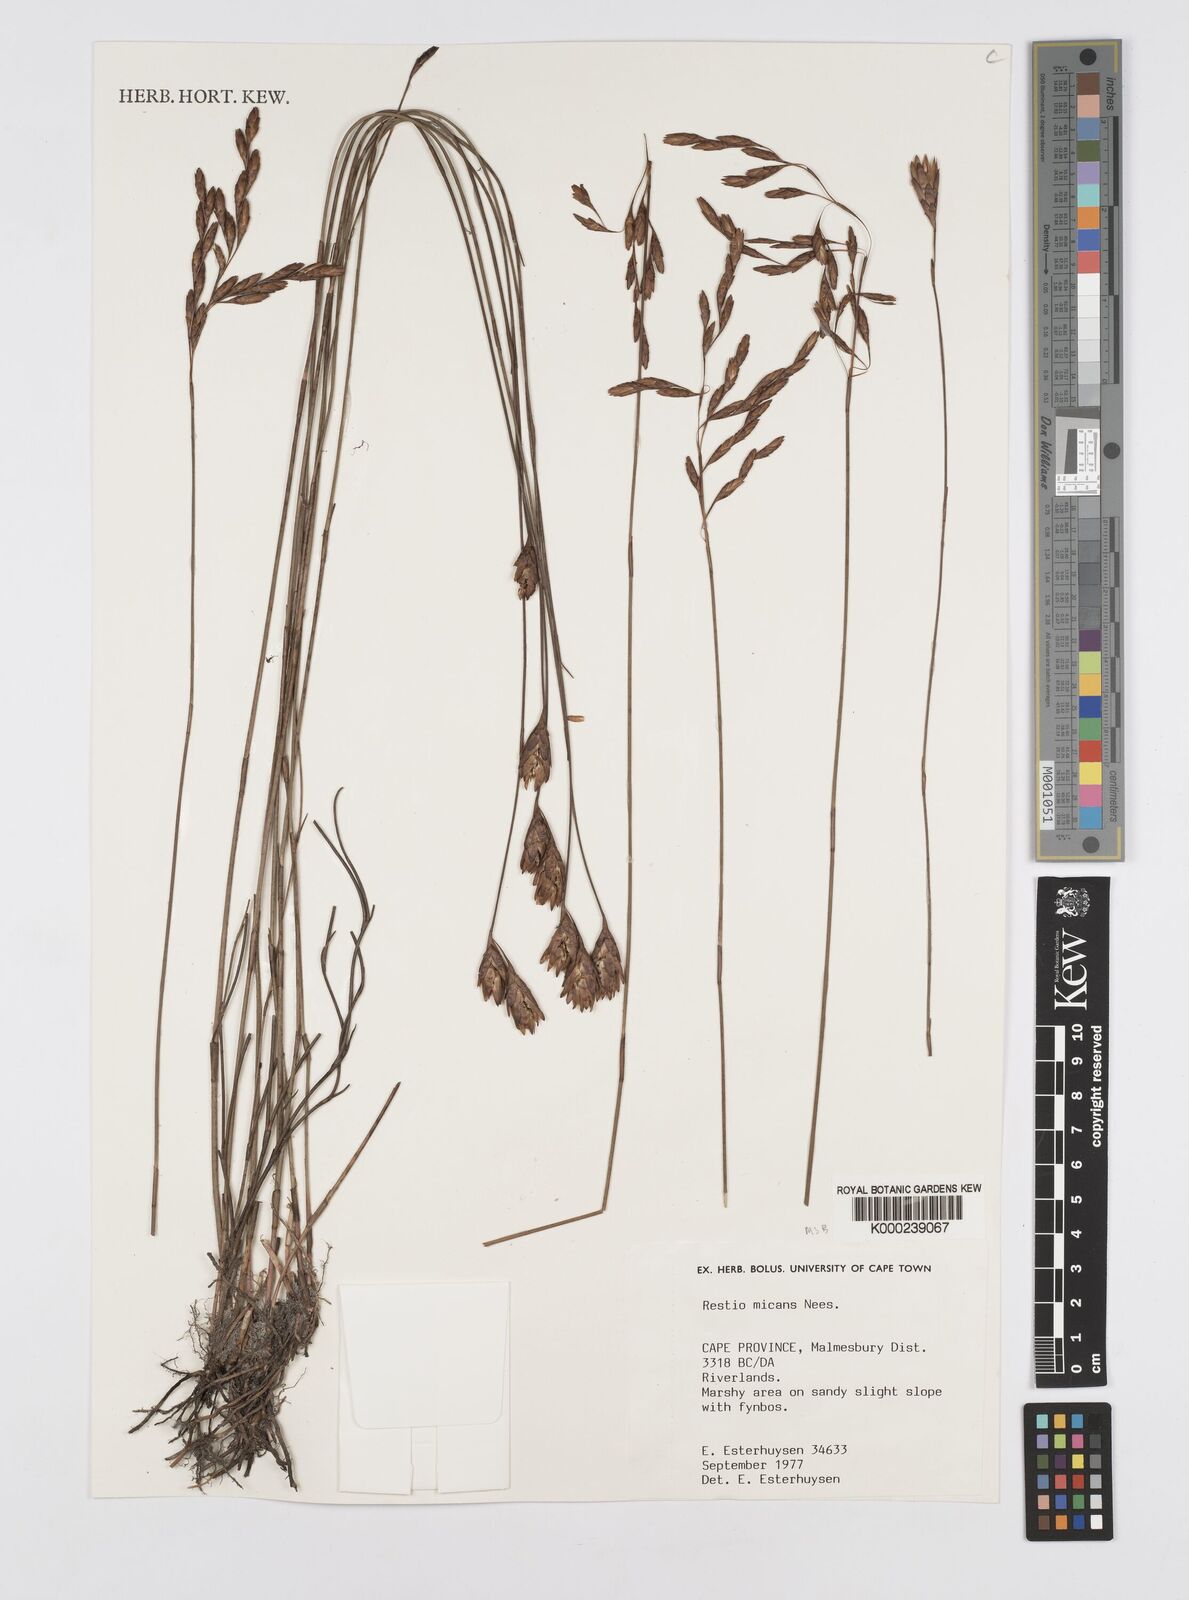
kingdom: Plantae
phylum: Tracheophyta
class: Liliopsida
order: Poales
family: Restionaceae
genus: Restio
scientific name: Restio micans
